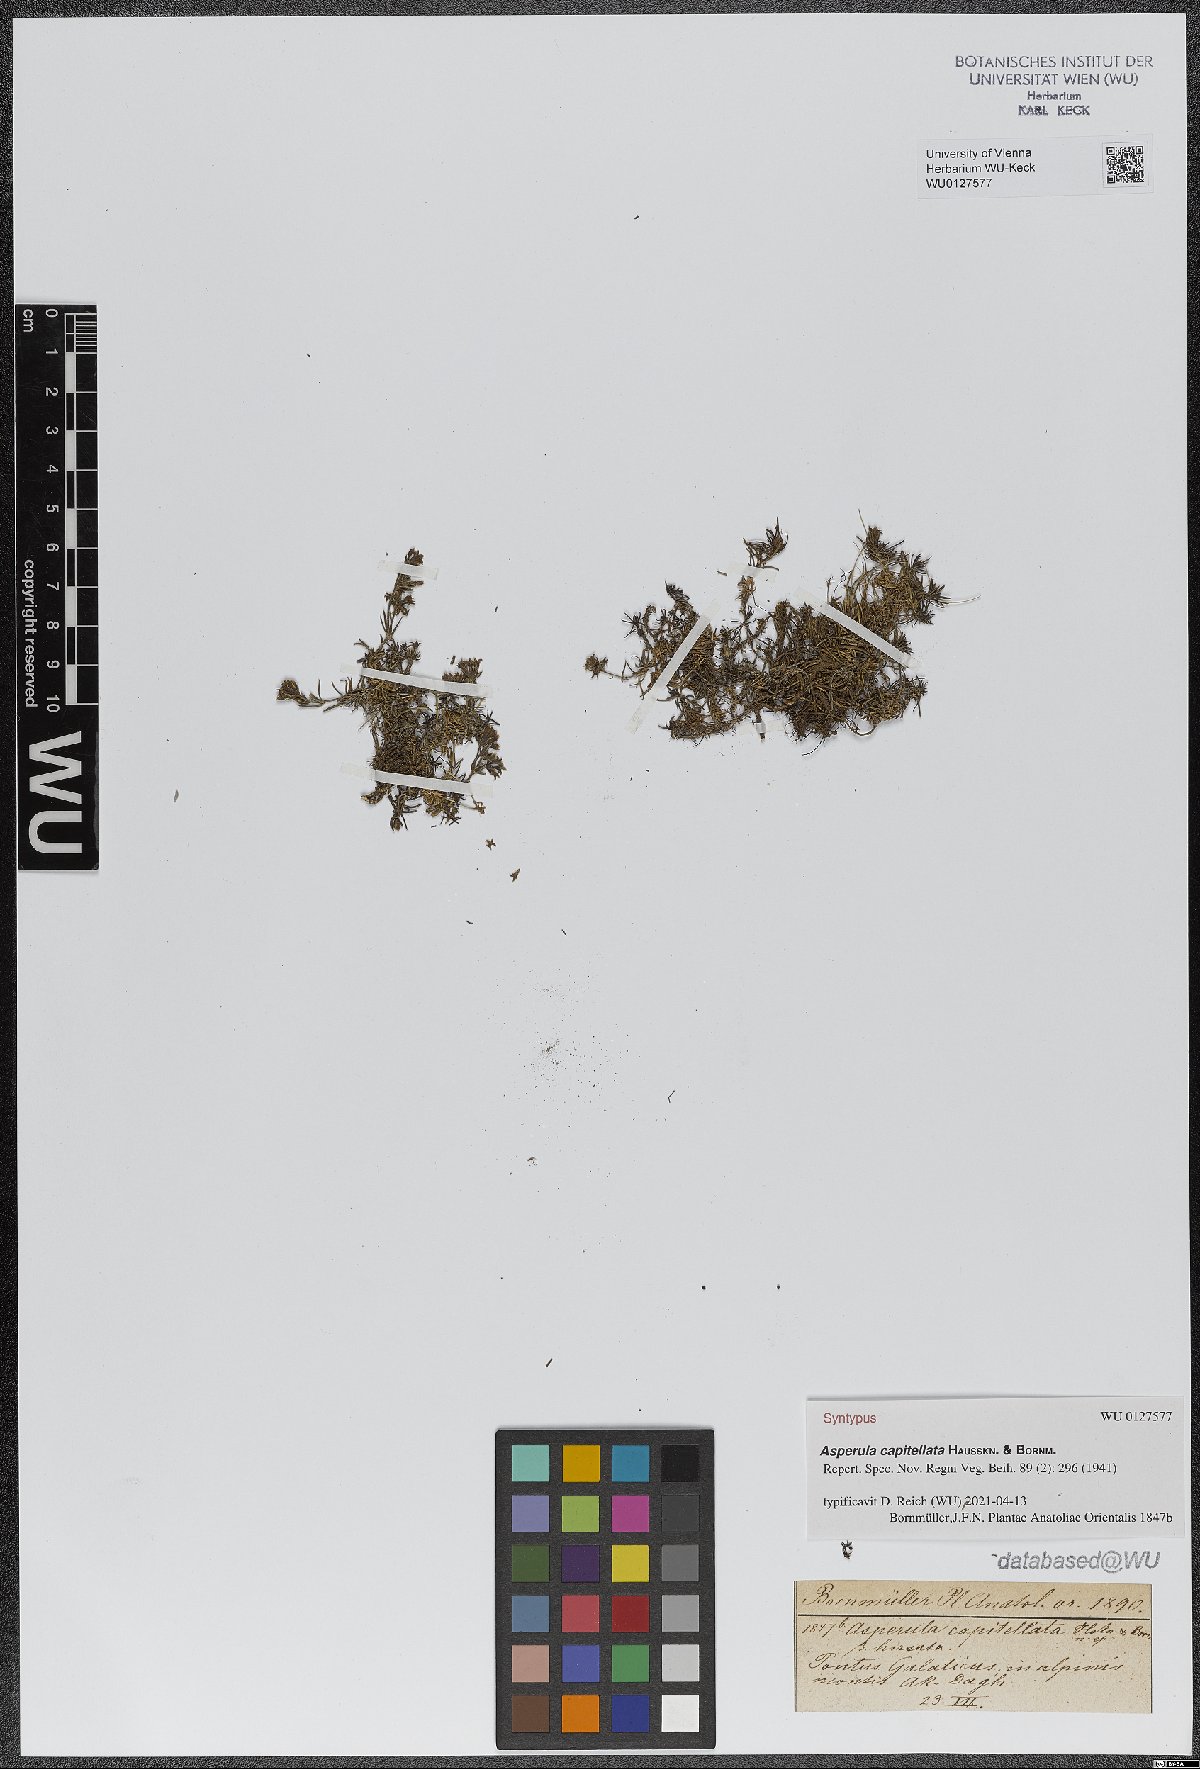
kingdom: Plantae
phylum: Tracheophyta
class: Magnoliopsida
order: Gentianales
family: Rubiaceae
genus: Cynanchica
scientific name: Cynanchica capitellata
